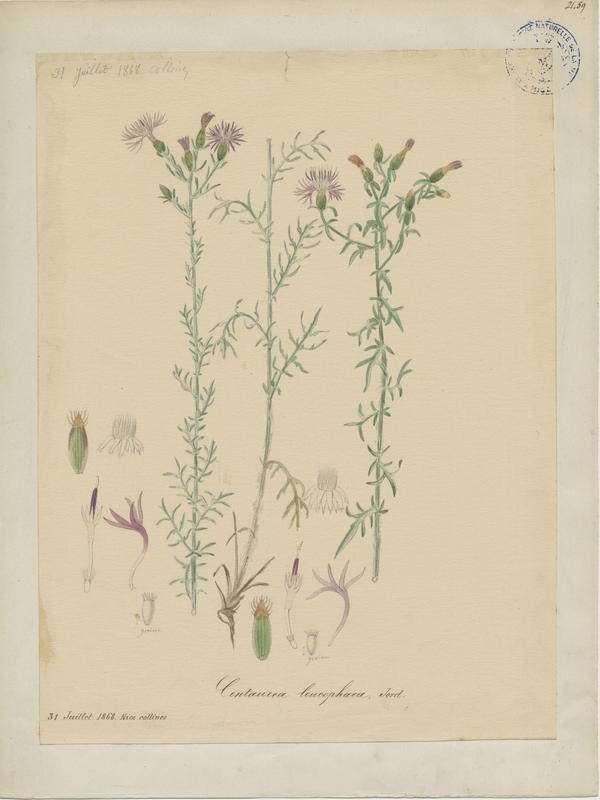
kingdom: Plantae
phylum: Tracheophyta
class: Magnoliopsida
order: Asterales
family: Asteraceae
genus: Centaurea
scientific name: Centaurea leucophaea
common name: Whitish-leaved knapweed
